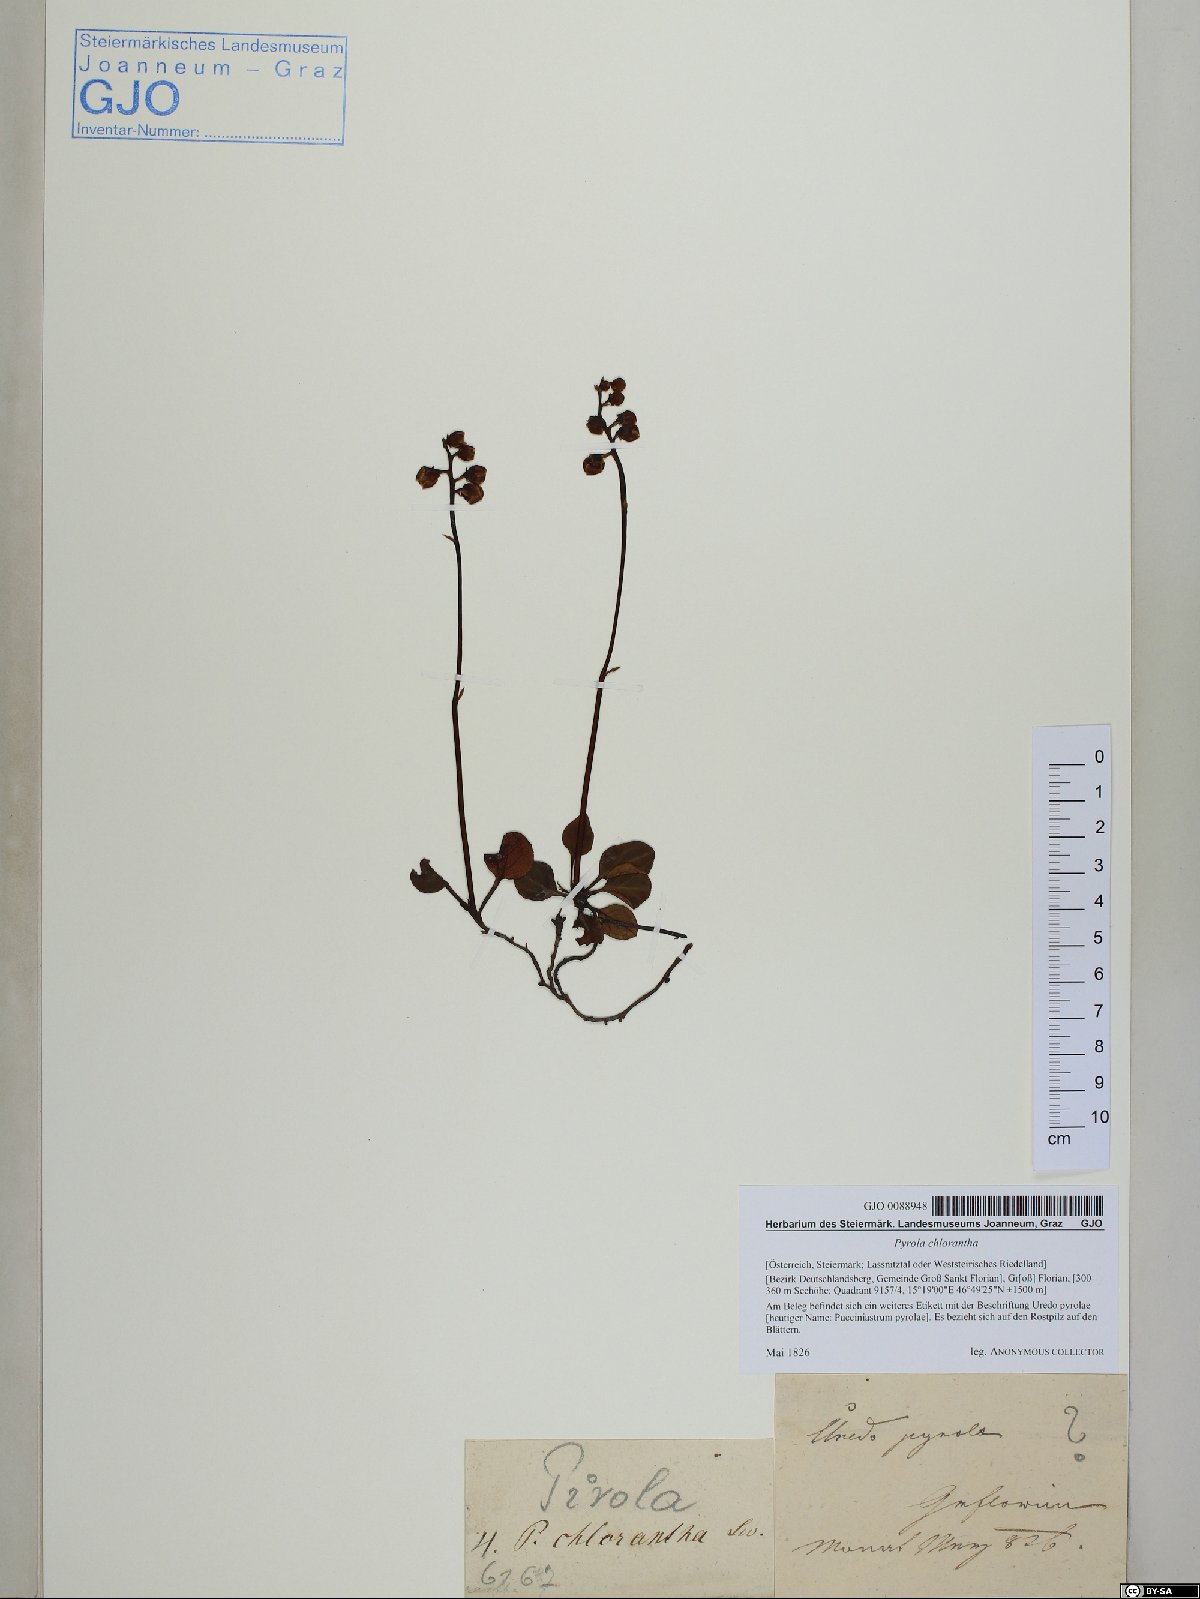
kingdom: Plantae
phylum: Tracheophyta
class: Magnoliopsida
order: Ericales
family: Ericaceae
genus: Pyrola
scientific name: Pyrola chlorantha
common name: Green wintergreen
